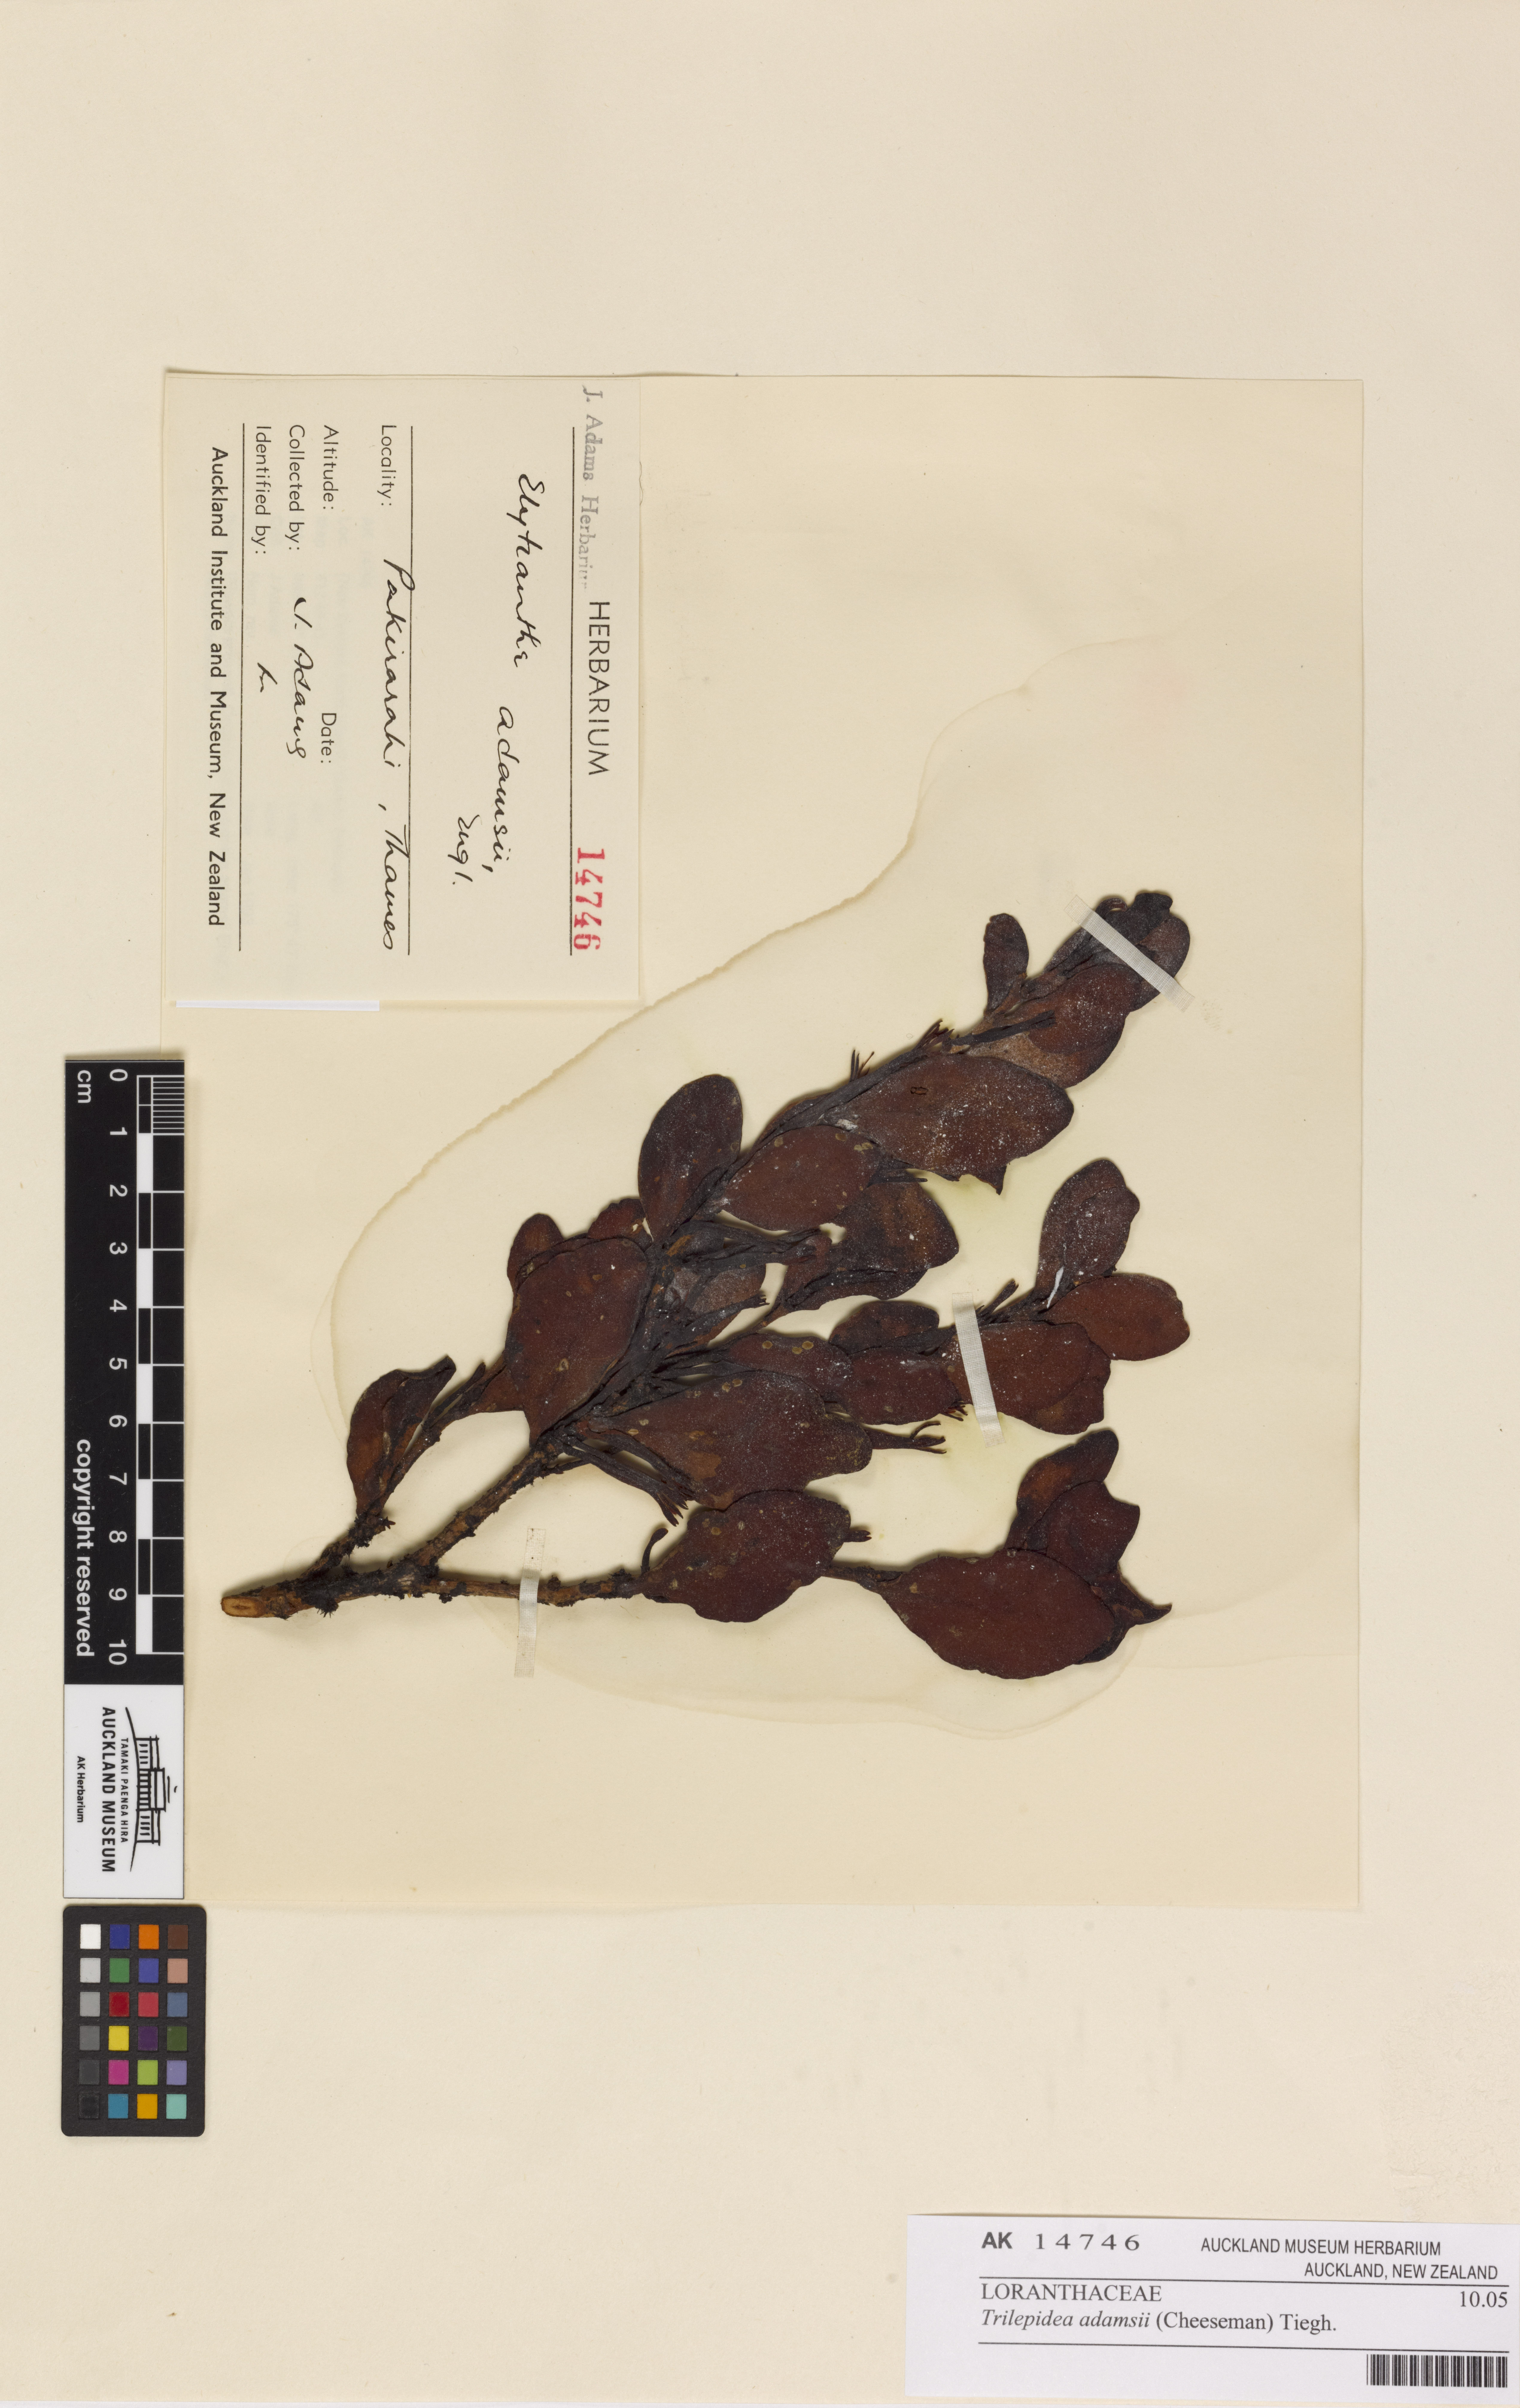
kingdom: Plantae
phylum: Tracheophyta
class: Magnoliopsida
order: Santalales
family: Loranthaceae
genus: Trilepidea
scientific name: Trilepidea adamsii
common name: Adams mistletoe
